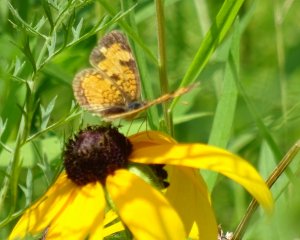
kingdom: Animalia
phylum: Arthropoda
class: Insecta
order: Lepidoptera
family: Nymphalidae
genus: Phyciodes
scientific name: Phyciodes tharos
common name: Northern Crescent
